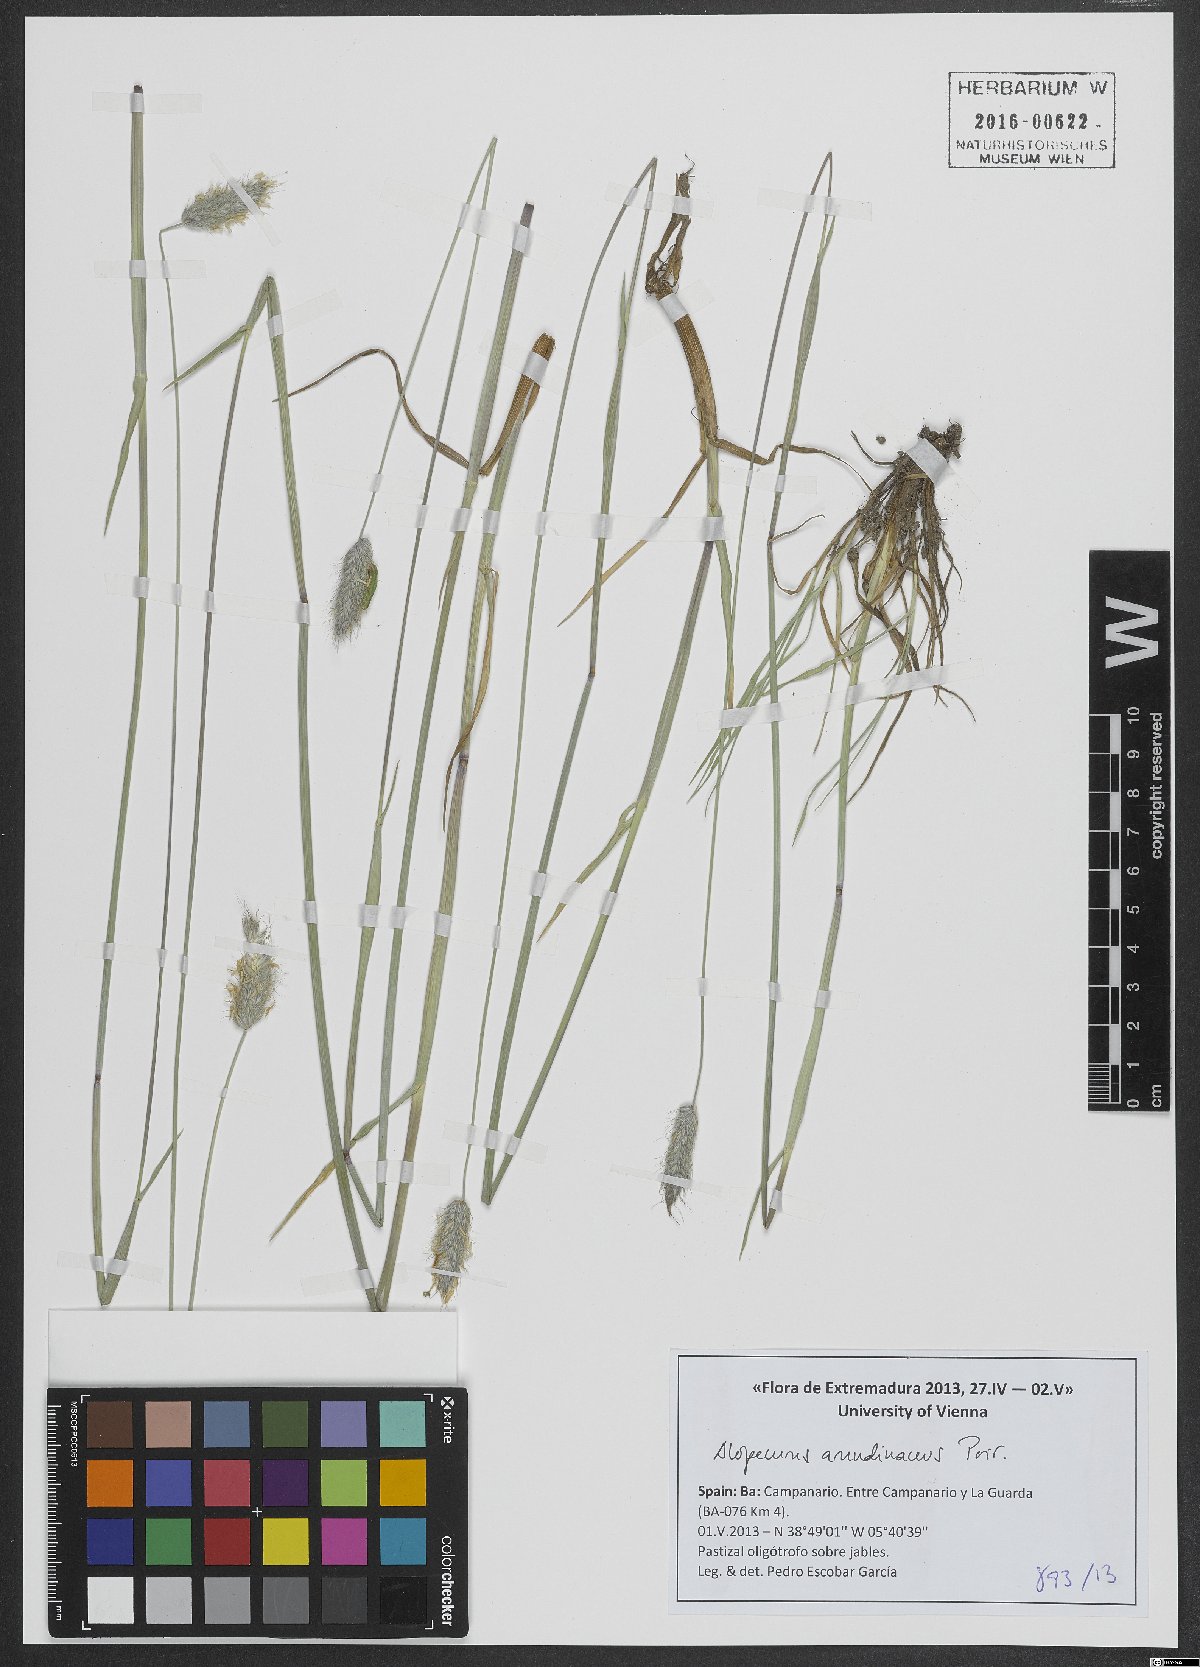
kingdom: Plantae
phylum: Tracheophyta
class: Liliopsida
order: Poales
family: Poaceae
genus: Alopecurus
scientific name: Alopecurus arundinaceus
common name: Creeping meadow foxtail
